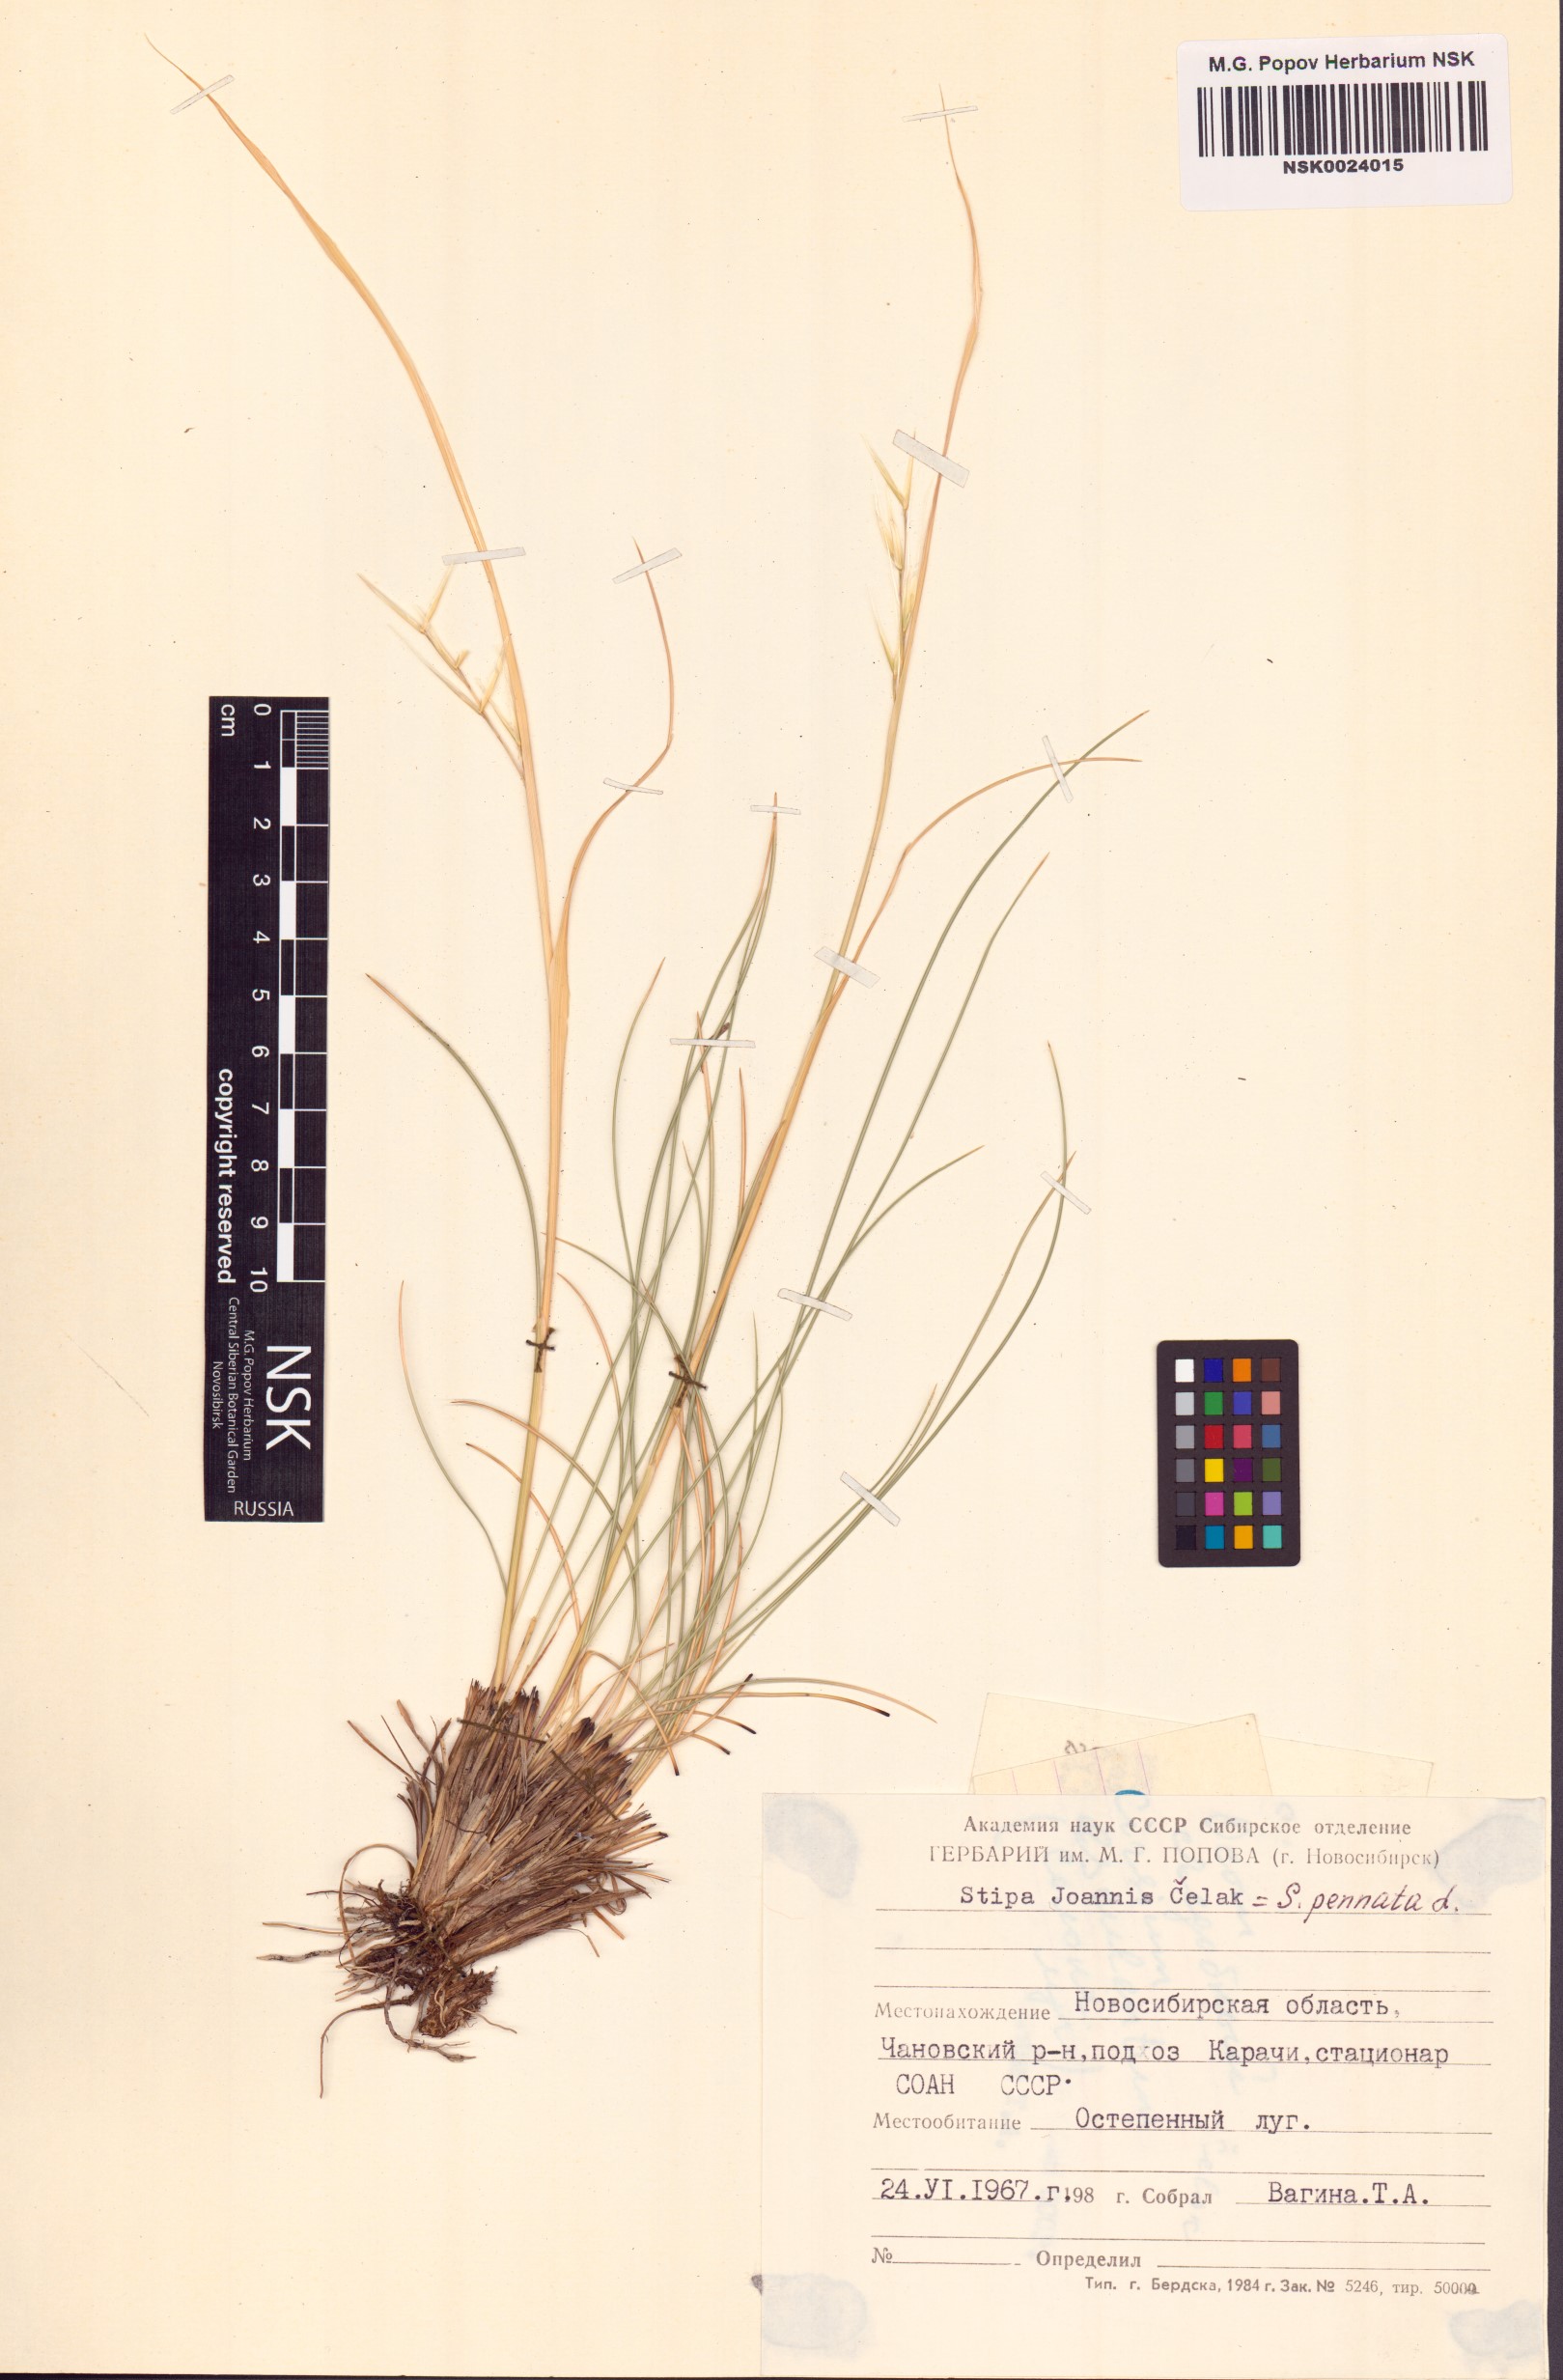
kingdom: Plantae
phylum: Tracheophyta
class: Liliopsida
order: Poales
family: Poaceae
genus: Stipa
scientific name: Stipa pennata
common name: European feather grass
